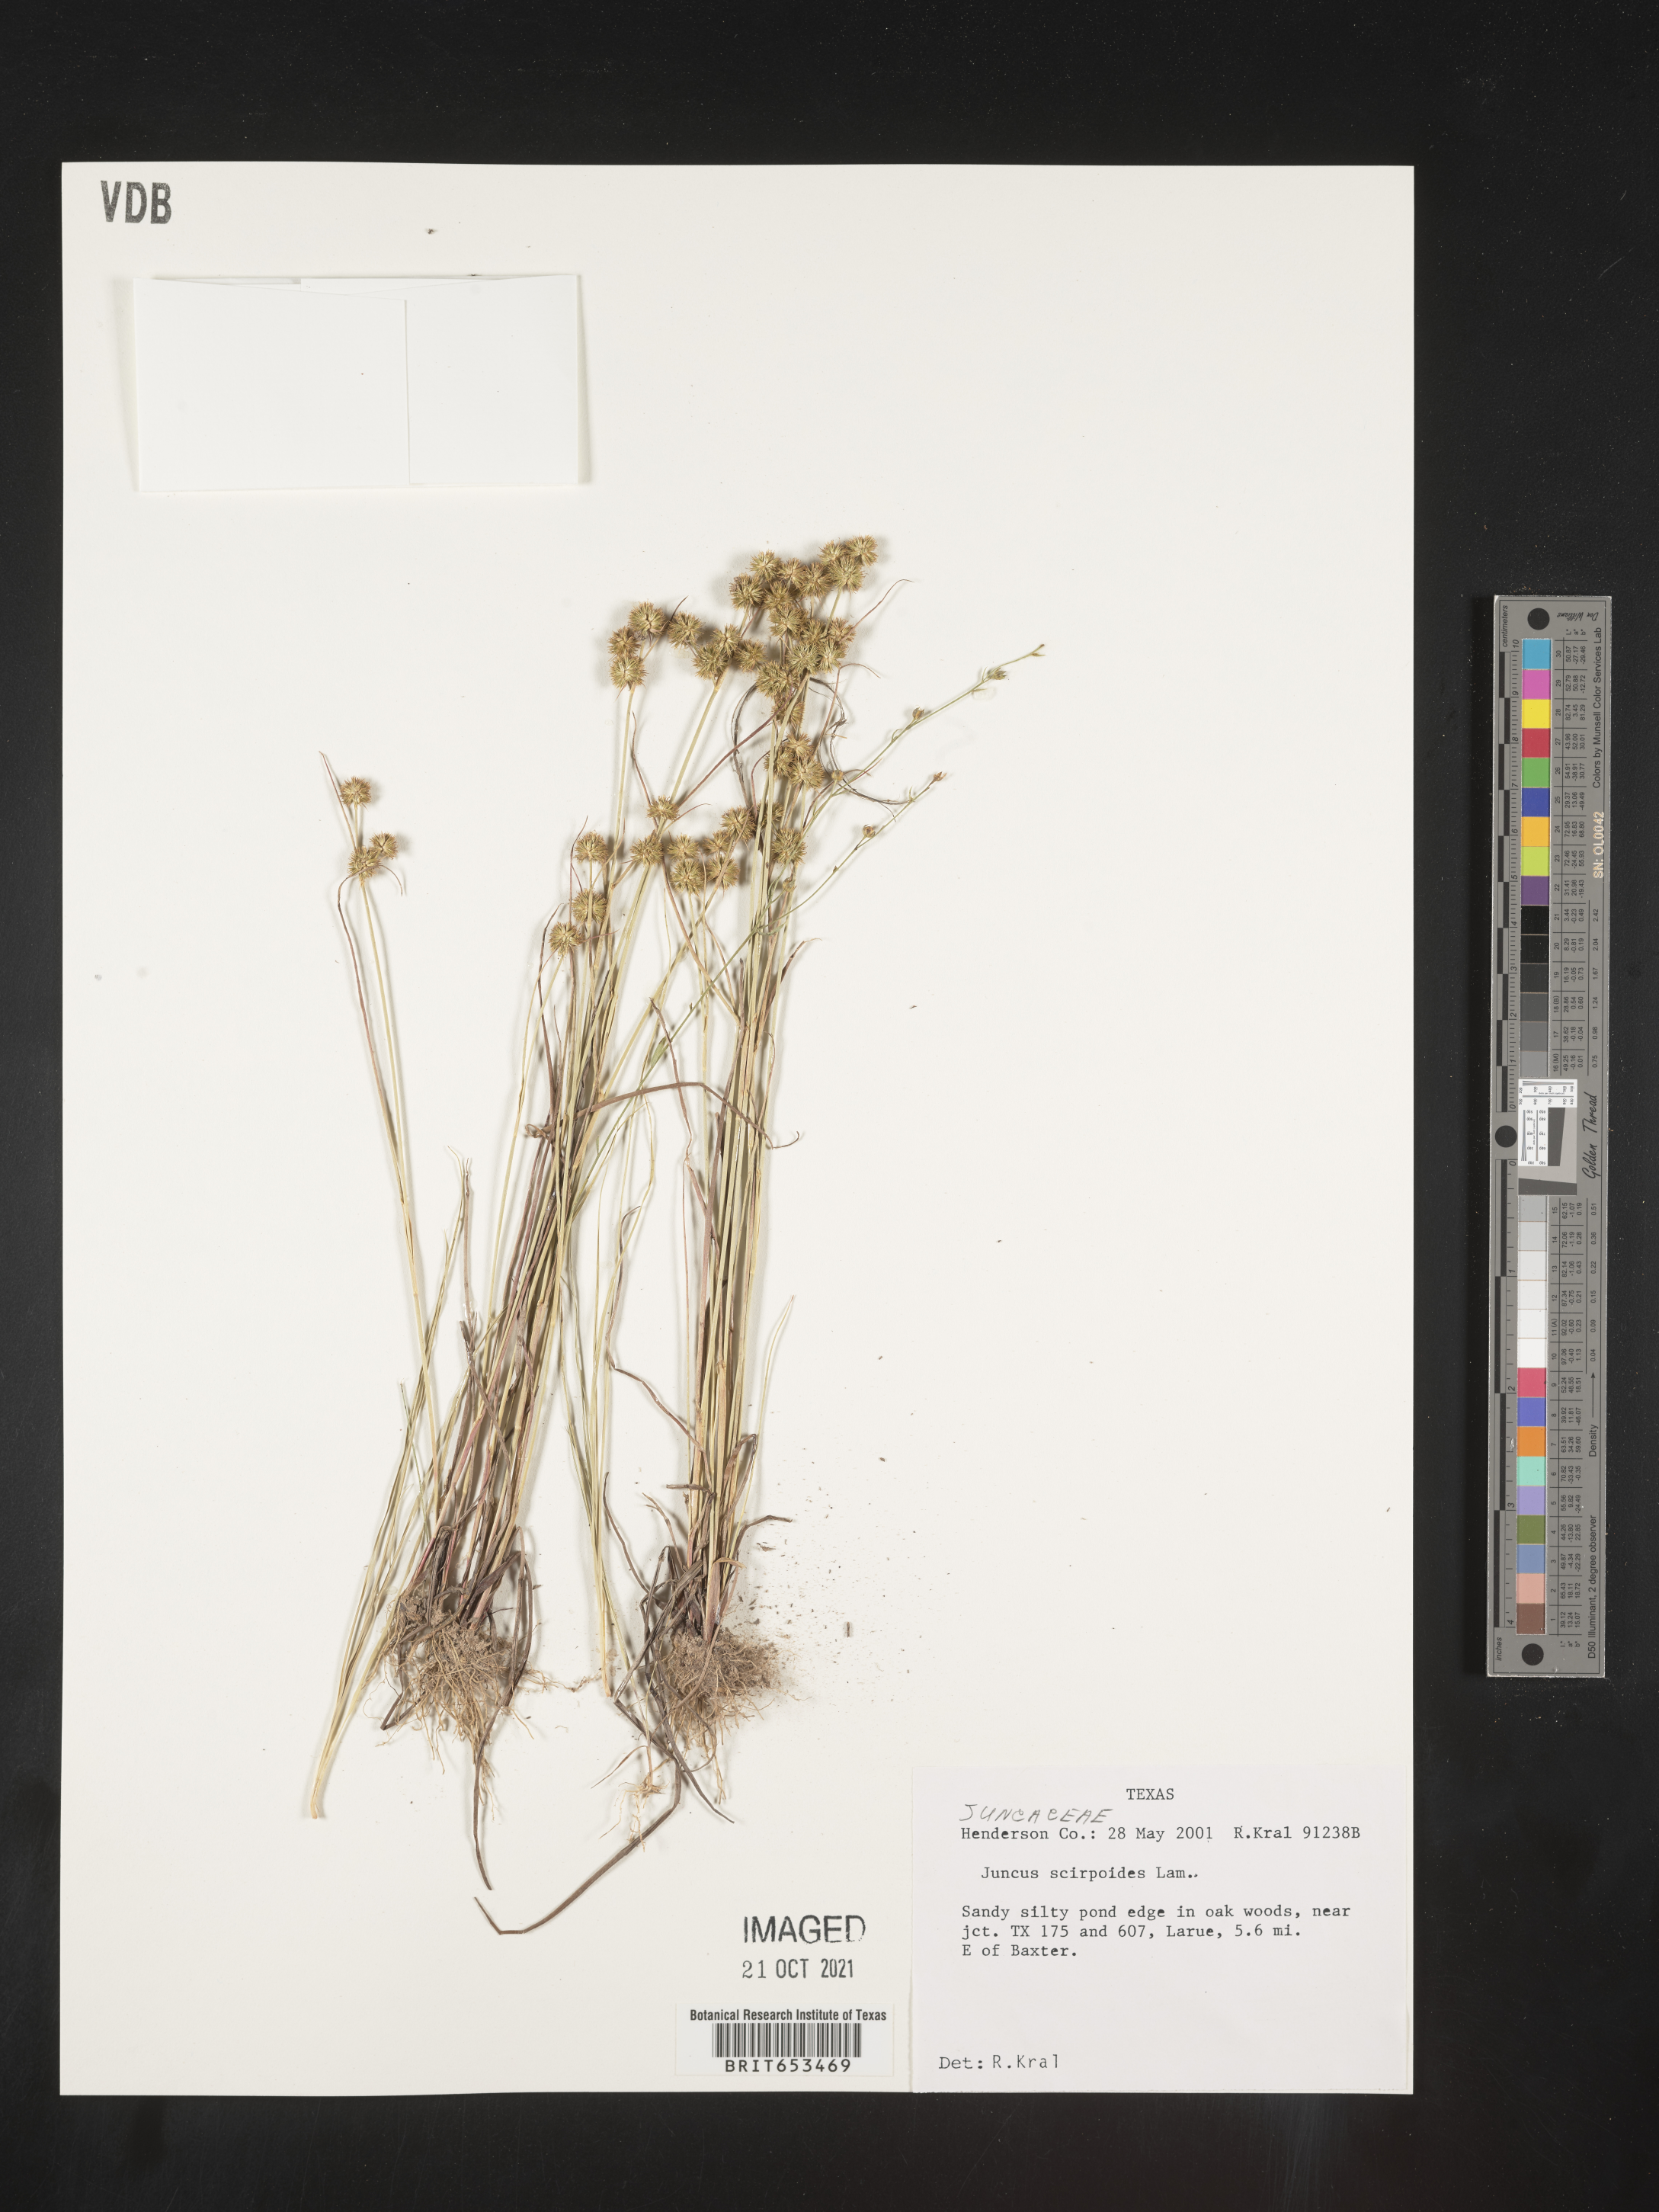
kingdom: Plantae
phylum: Tracheophyta
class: Liliopsida
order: Poales
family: Juncaceae
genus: Juncus
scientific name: Juncus scirpoides
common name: Needlepod rush
